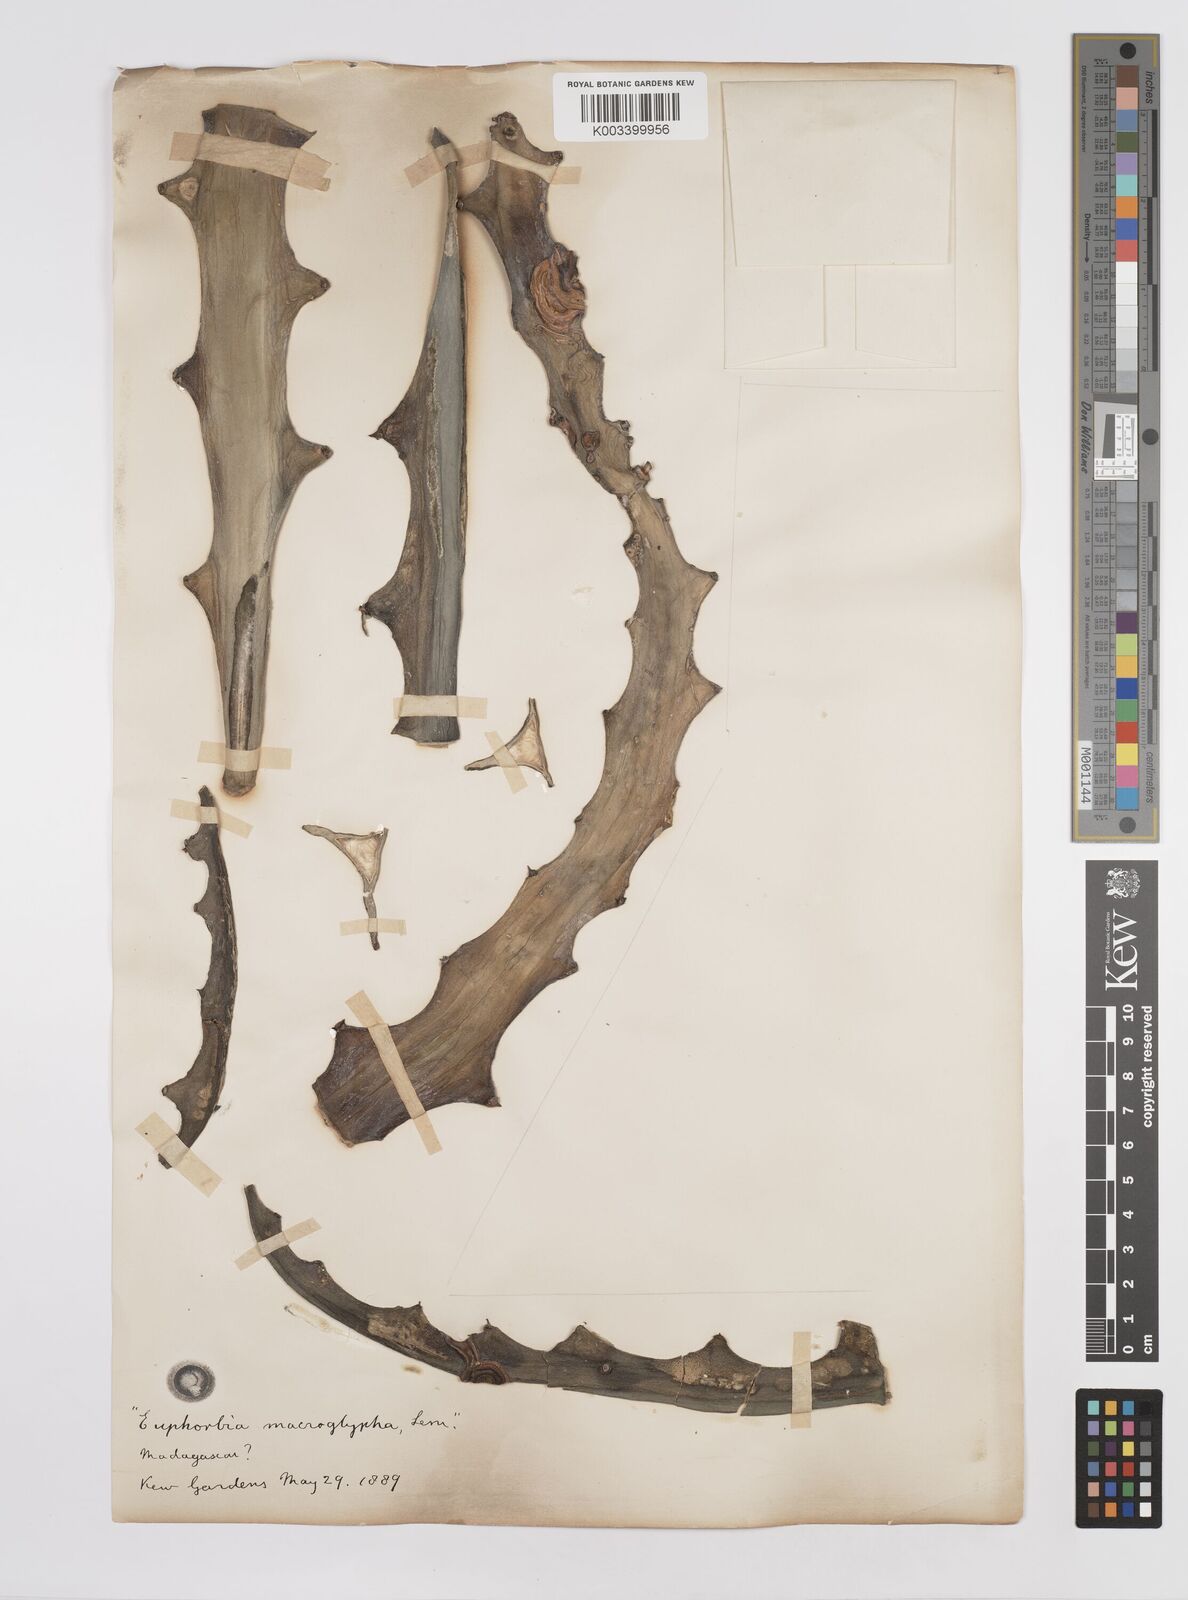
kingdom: Plantae
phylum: Tracheophyta
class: Magnoliopsida
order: Malpighiales
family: Euphorbiaceae
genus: Euphorbia
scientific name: Euphorbia macroglypha
